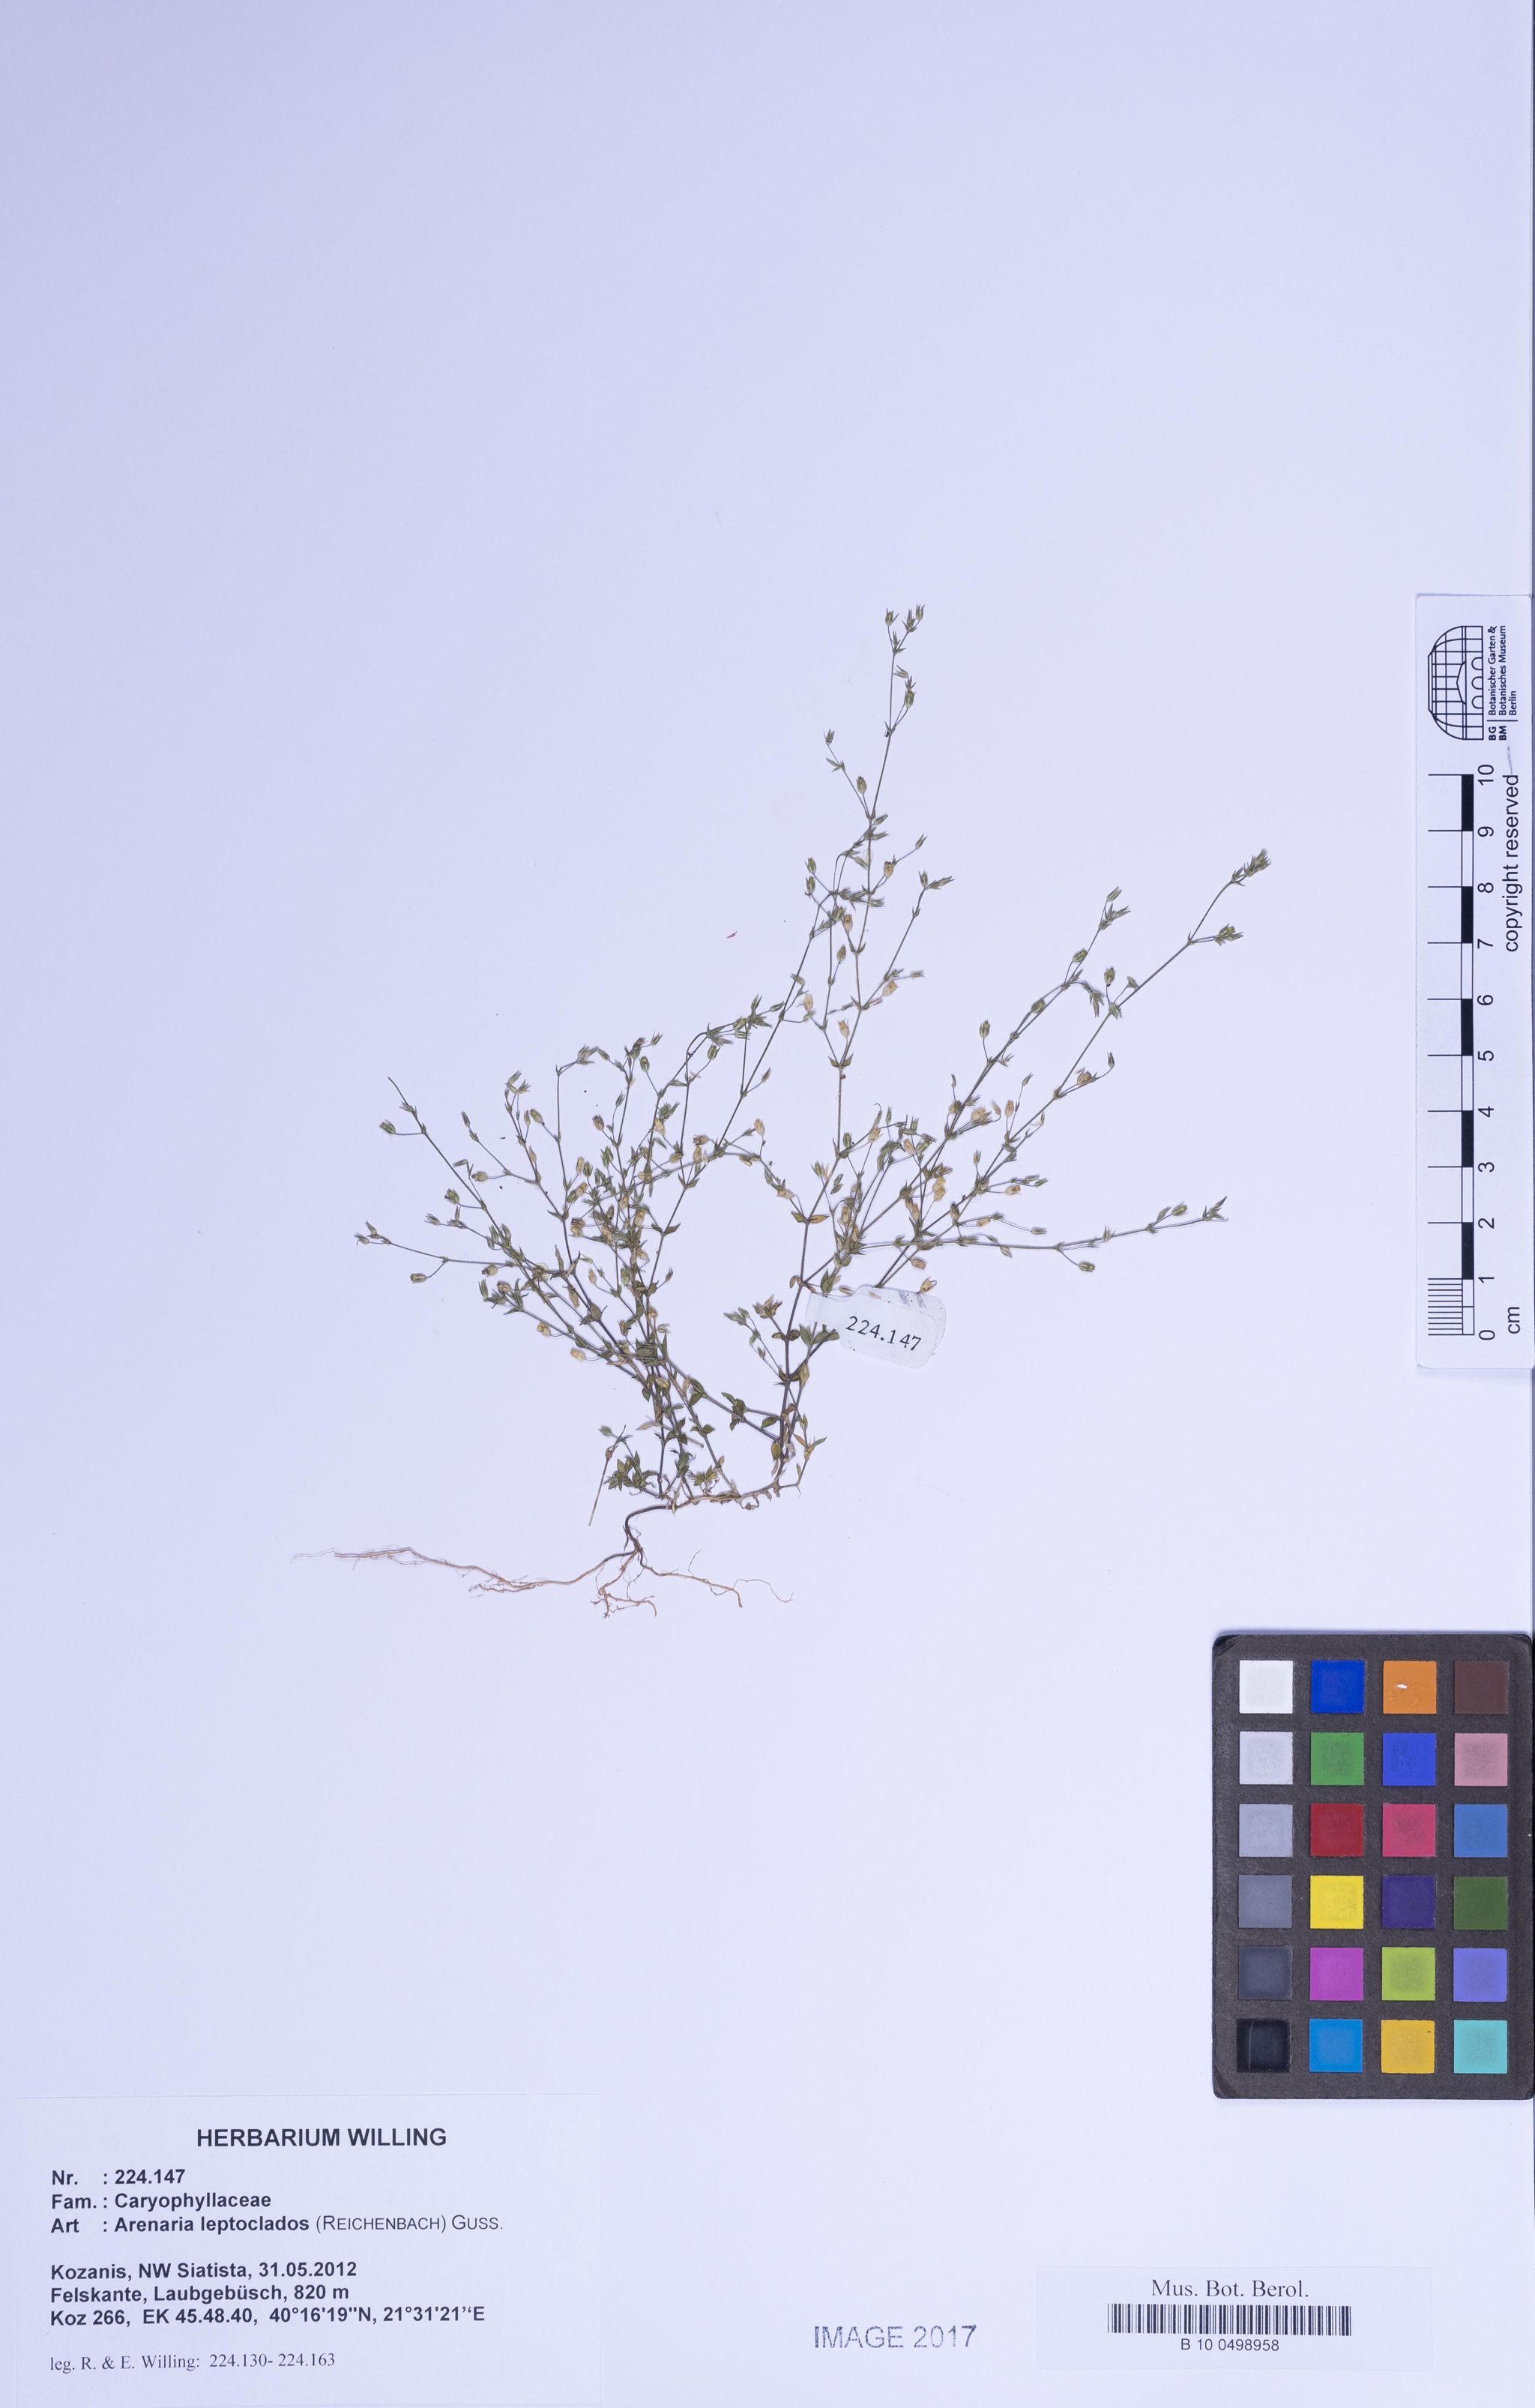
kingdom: Plantae
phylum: Tracheophyta
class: Magnoliopsida
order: Caryophyllales
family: Caryophyllaceae
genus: Arenaria
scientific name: Arenaria leptoclados
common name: Thyme-leaved sandwort
